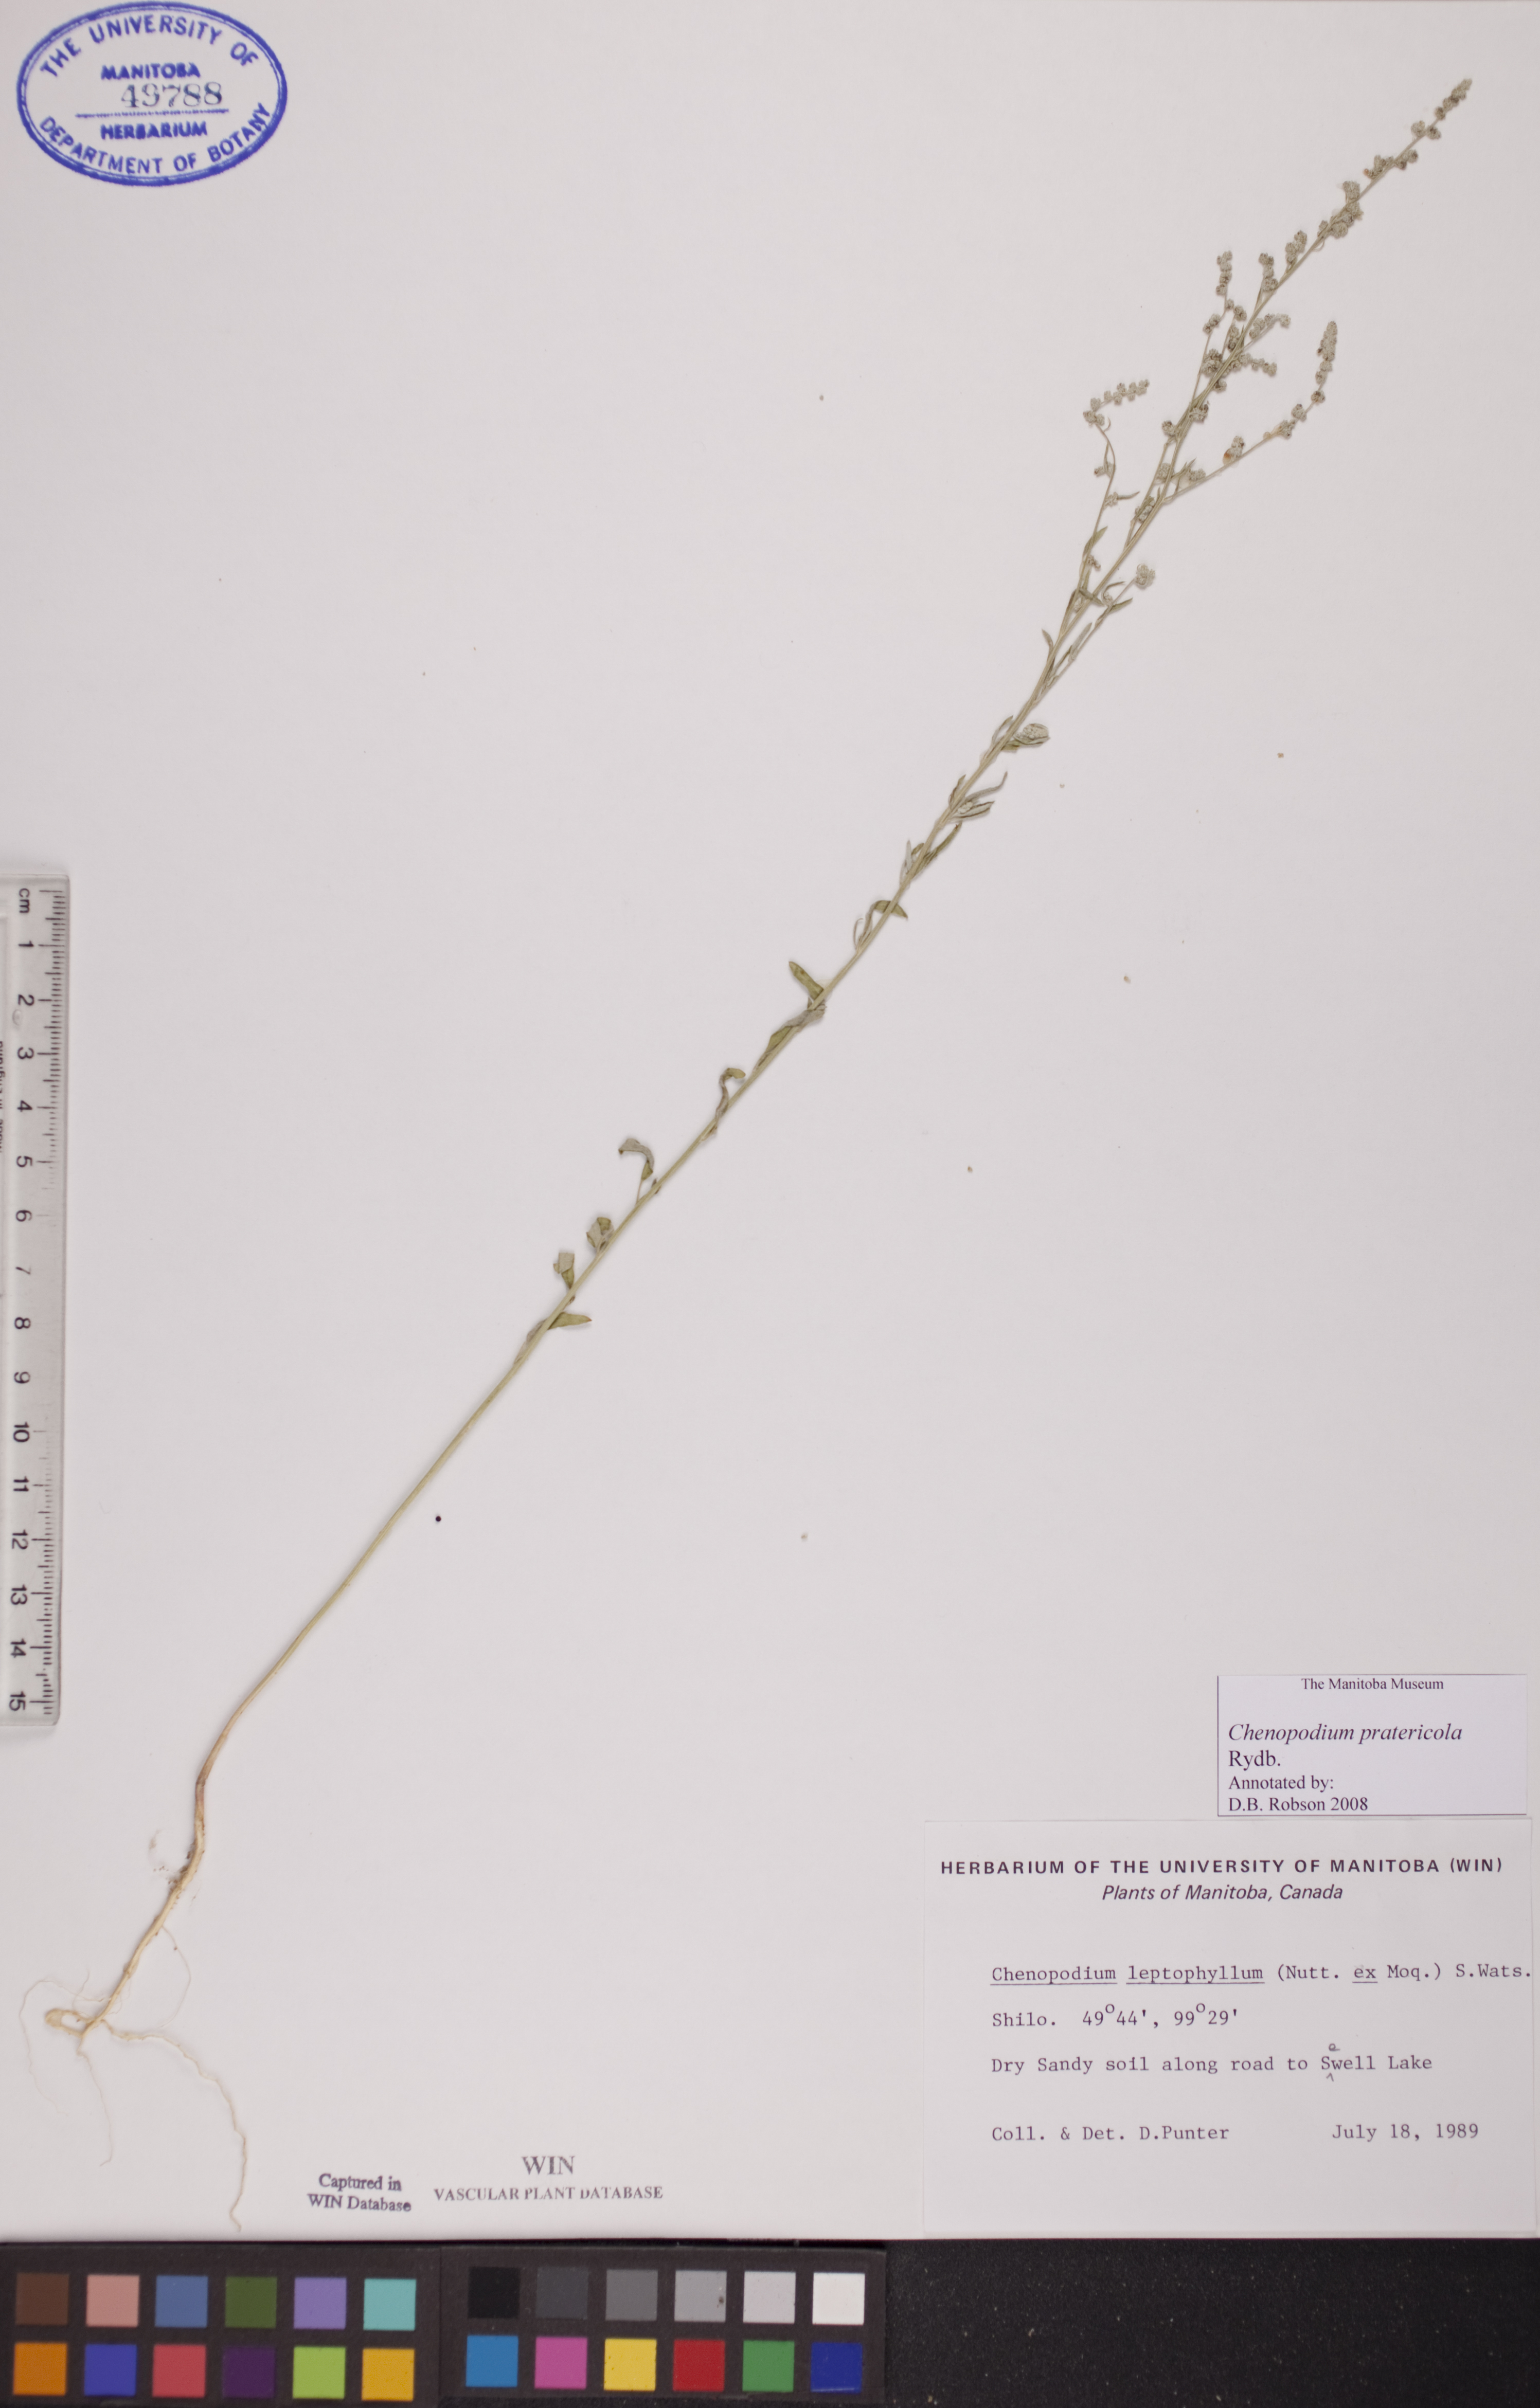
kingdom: Plantae
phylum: Tracheophyta
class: Magnoliopsida
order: Caryophyllales
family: Amaranthaceae
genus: Chenopodium
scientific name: Chenopodium pratericola
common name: Desert goosefoot
